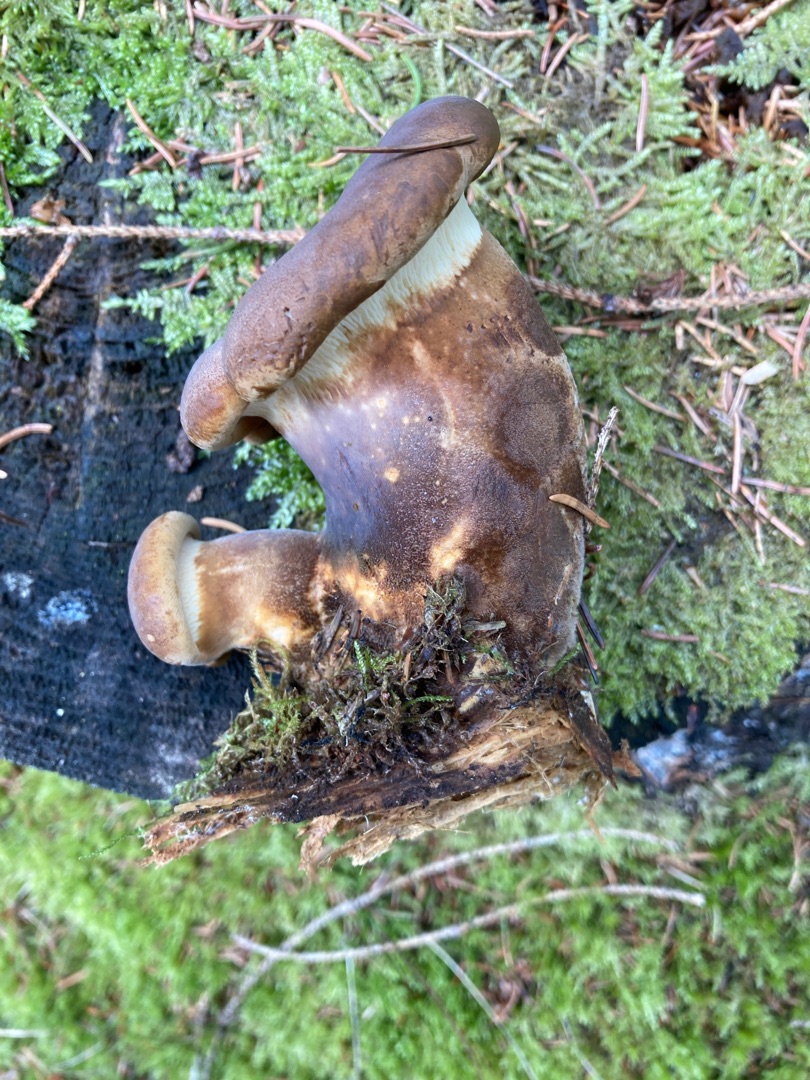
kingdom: Fungi
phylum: Basidiomycota
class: Agaricomycetes
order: Boletales
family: Tapinellaceae
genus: Tapinella
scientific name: Tapinella atrotomentosa
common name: Sortfiltet viftesvamp
